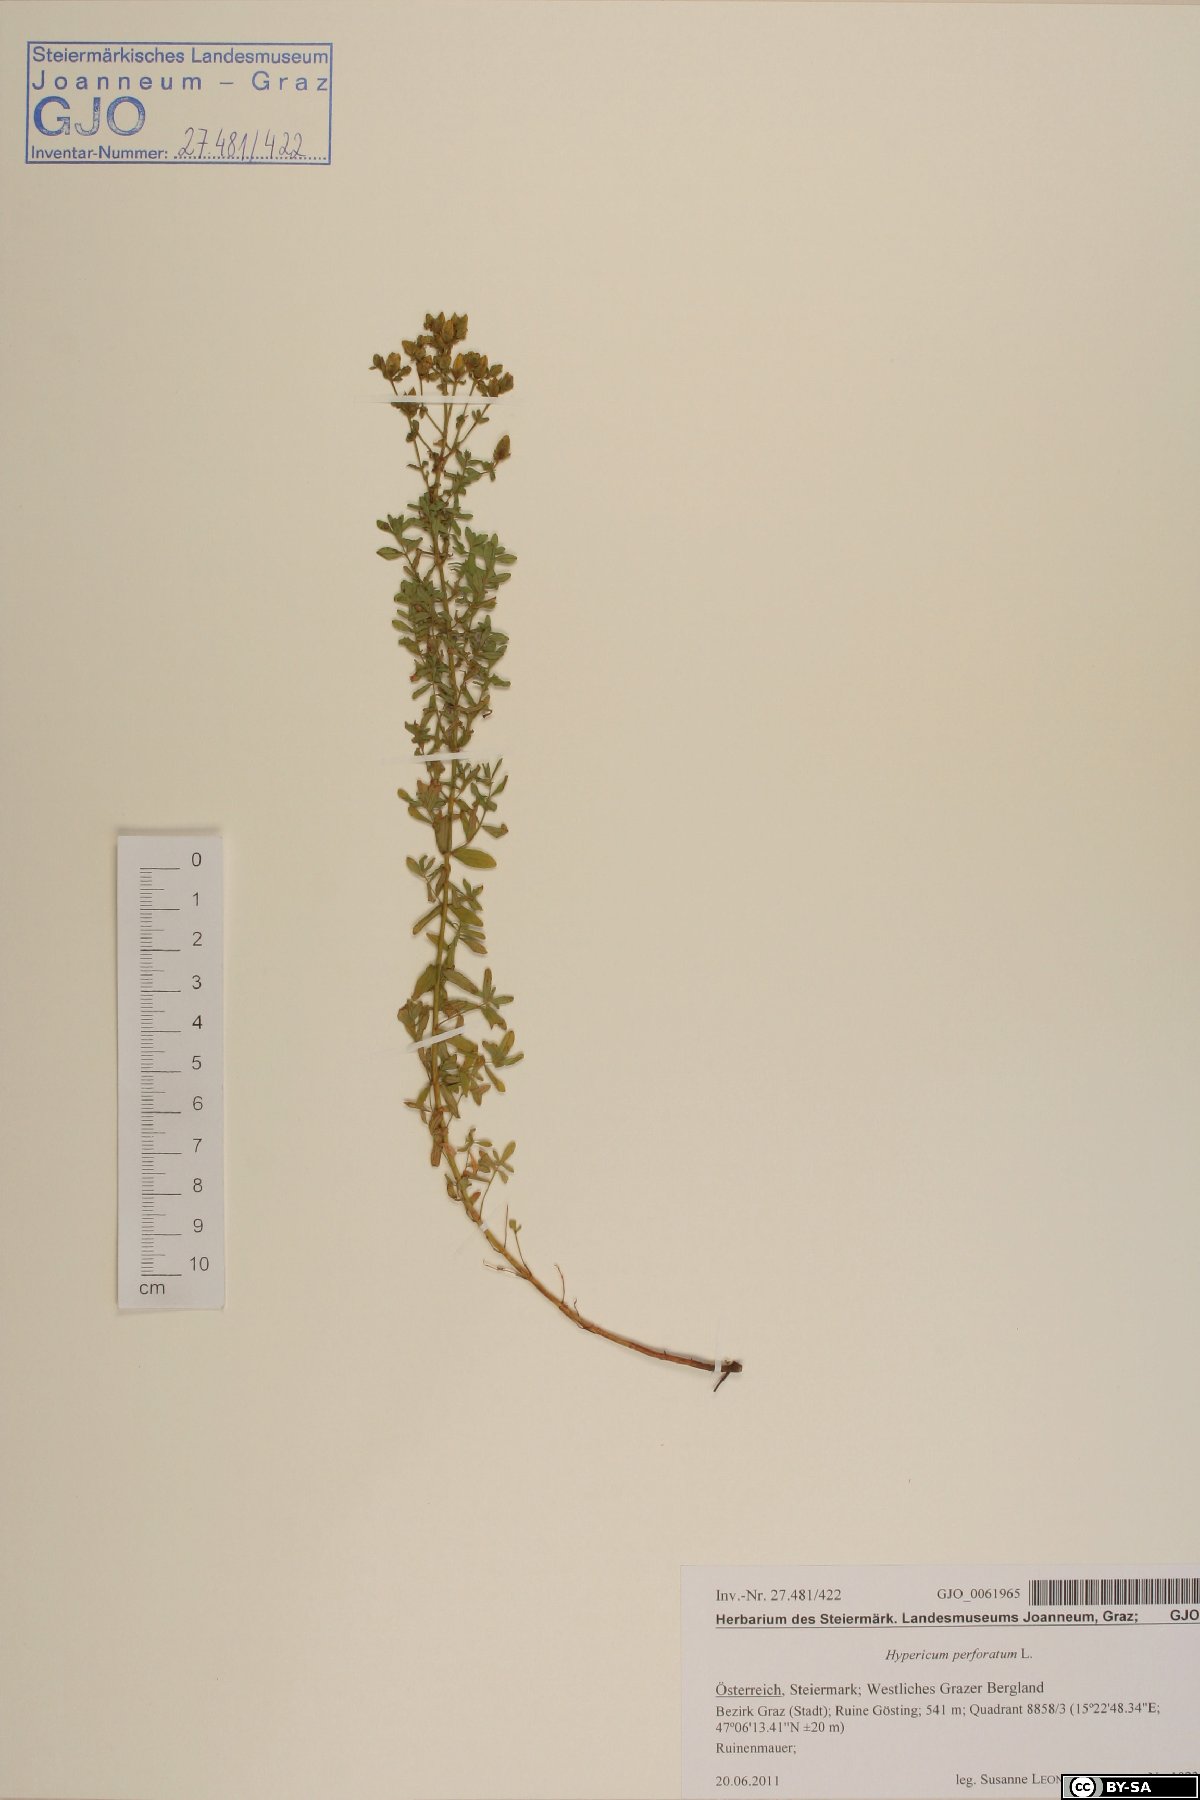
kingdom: Plantae
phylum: Tracheophyta
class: Magnoliopsida
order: Malpighiales
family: Hypericaceae
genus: Hypericum
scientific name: Hypericum perforatum
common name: Common st. johnswort
